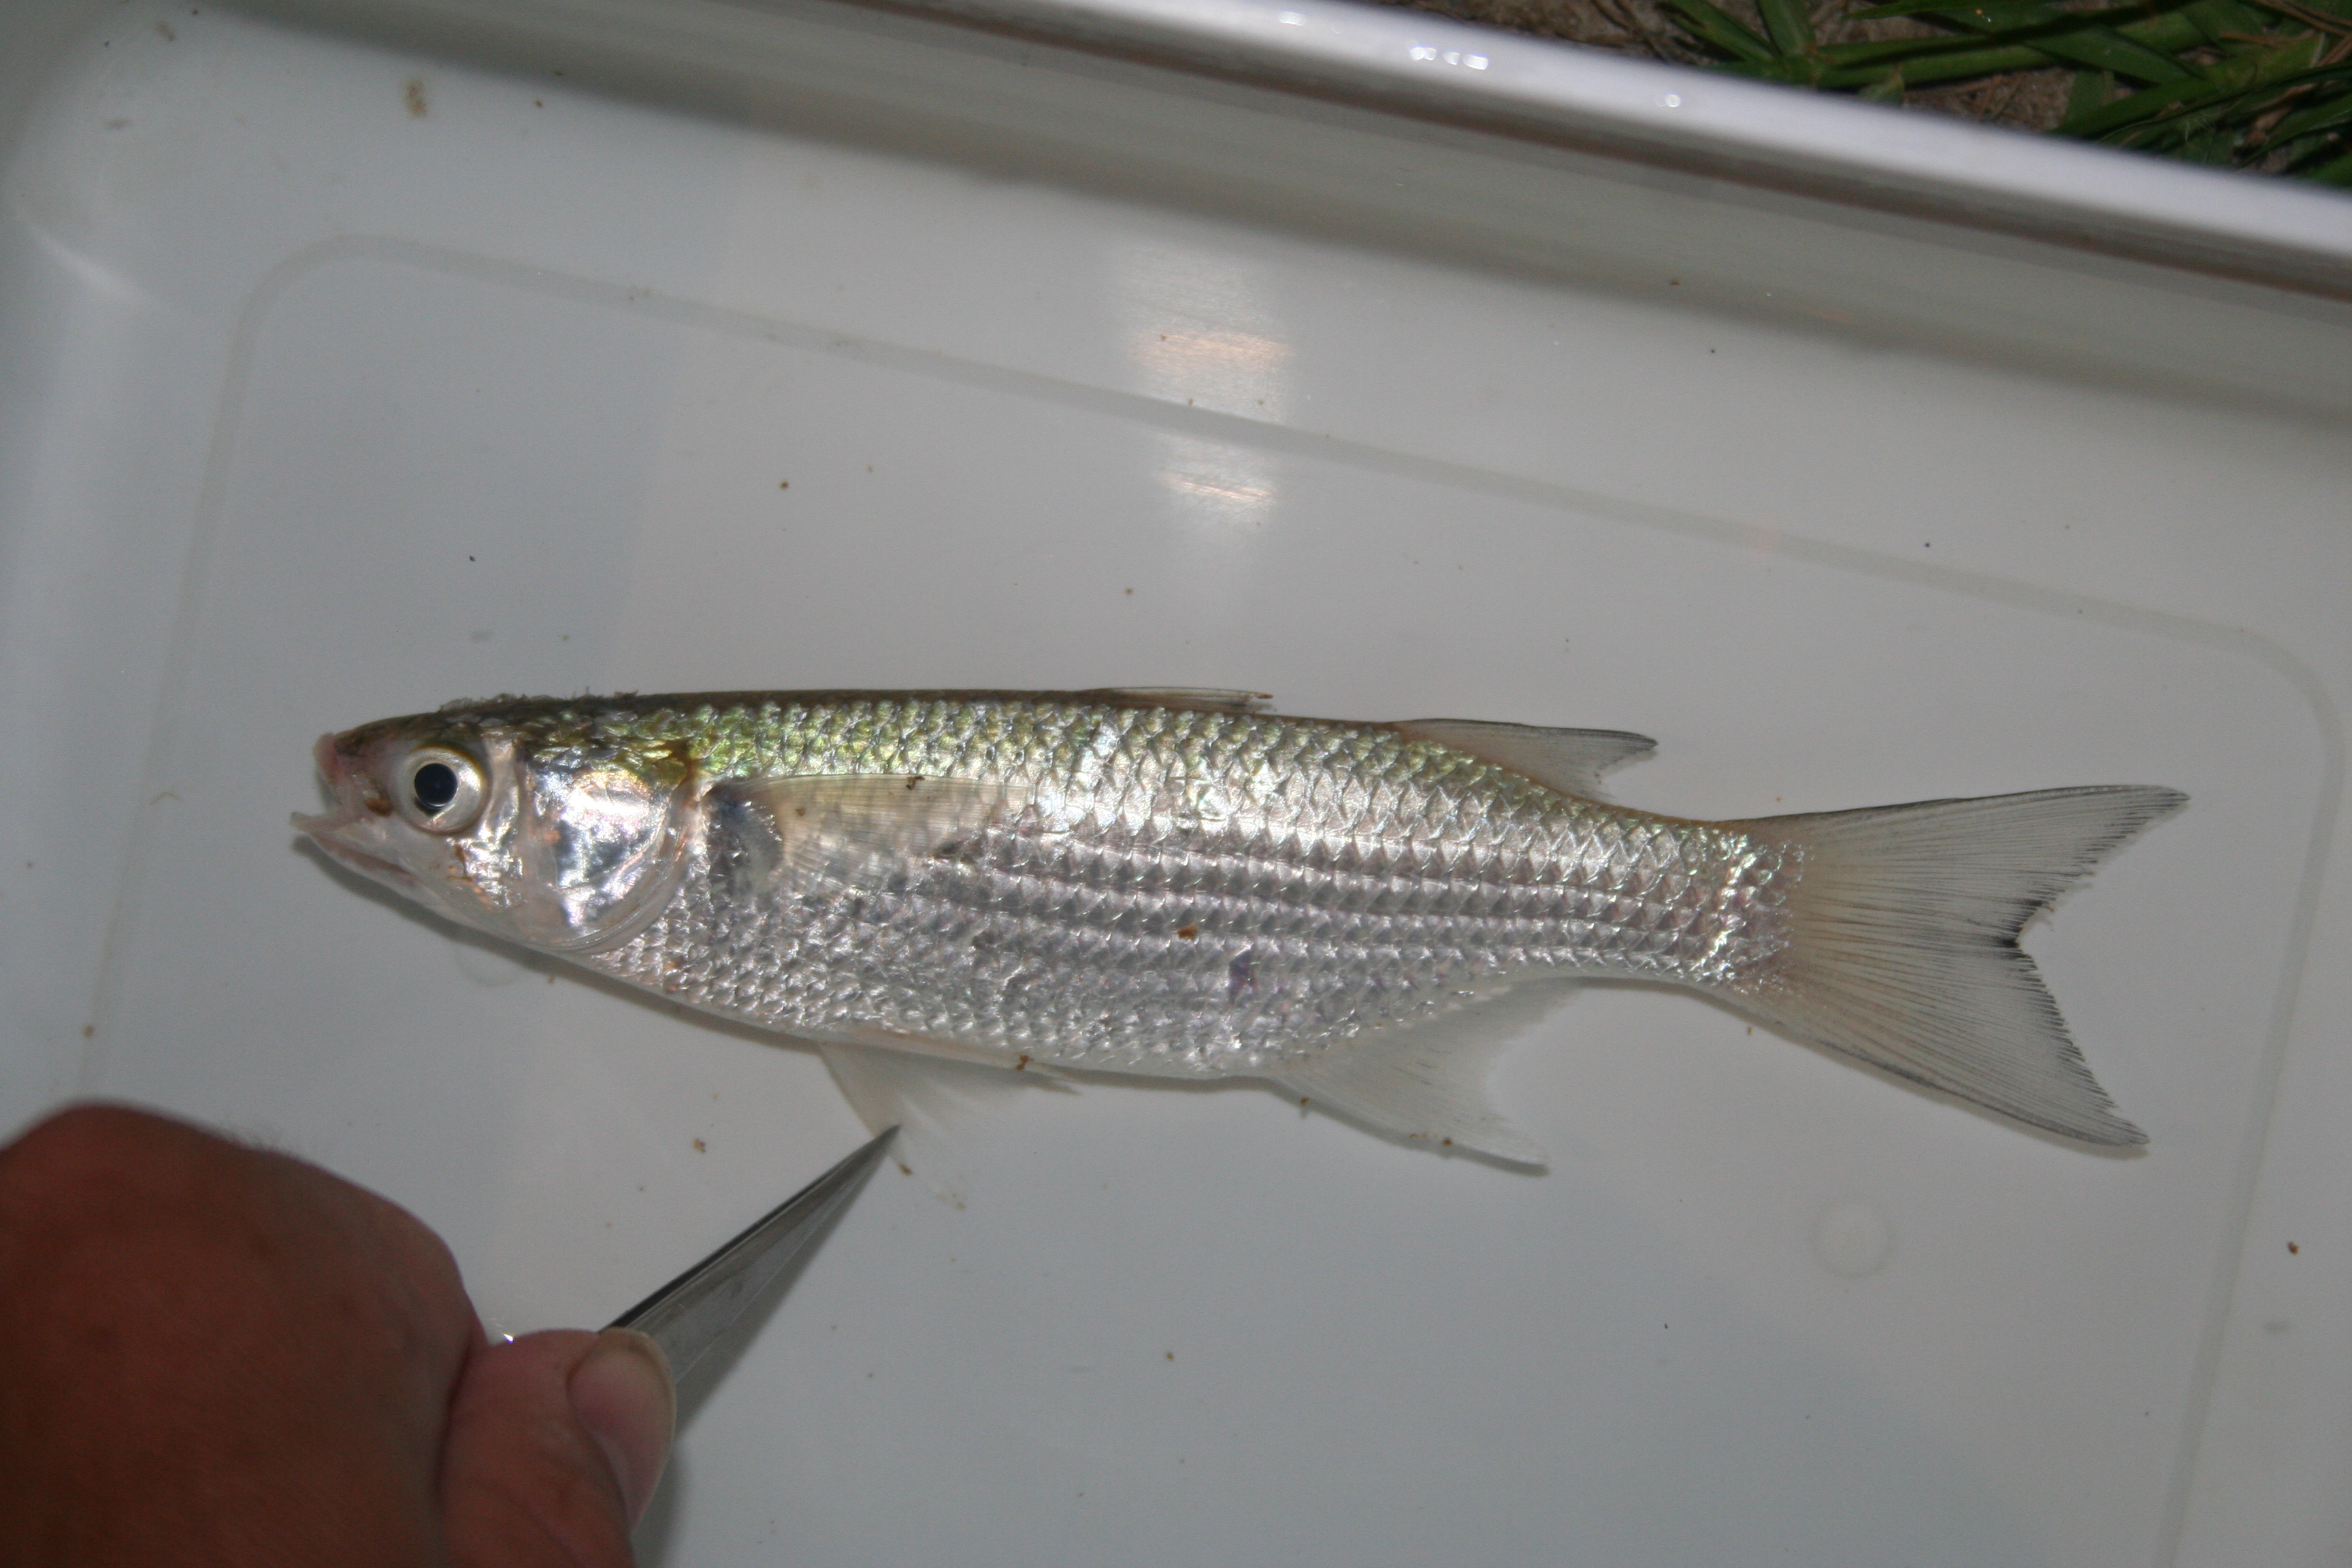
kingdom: Animalia
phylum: Chordata
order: Mugiliformes
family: Mugilidae
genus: Liza
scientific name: Liza
